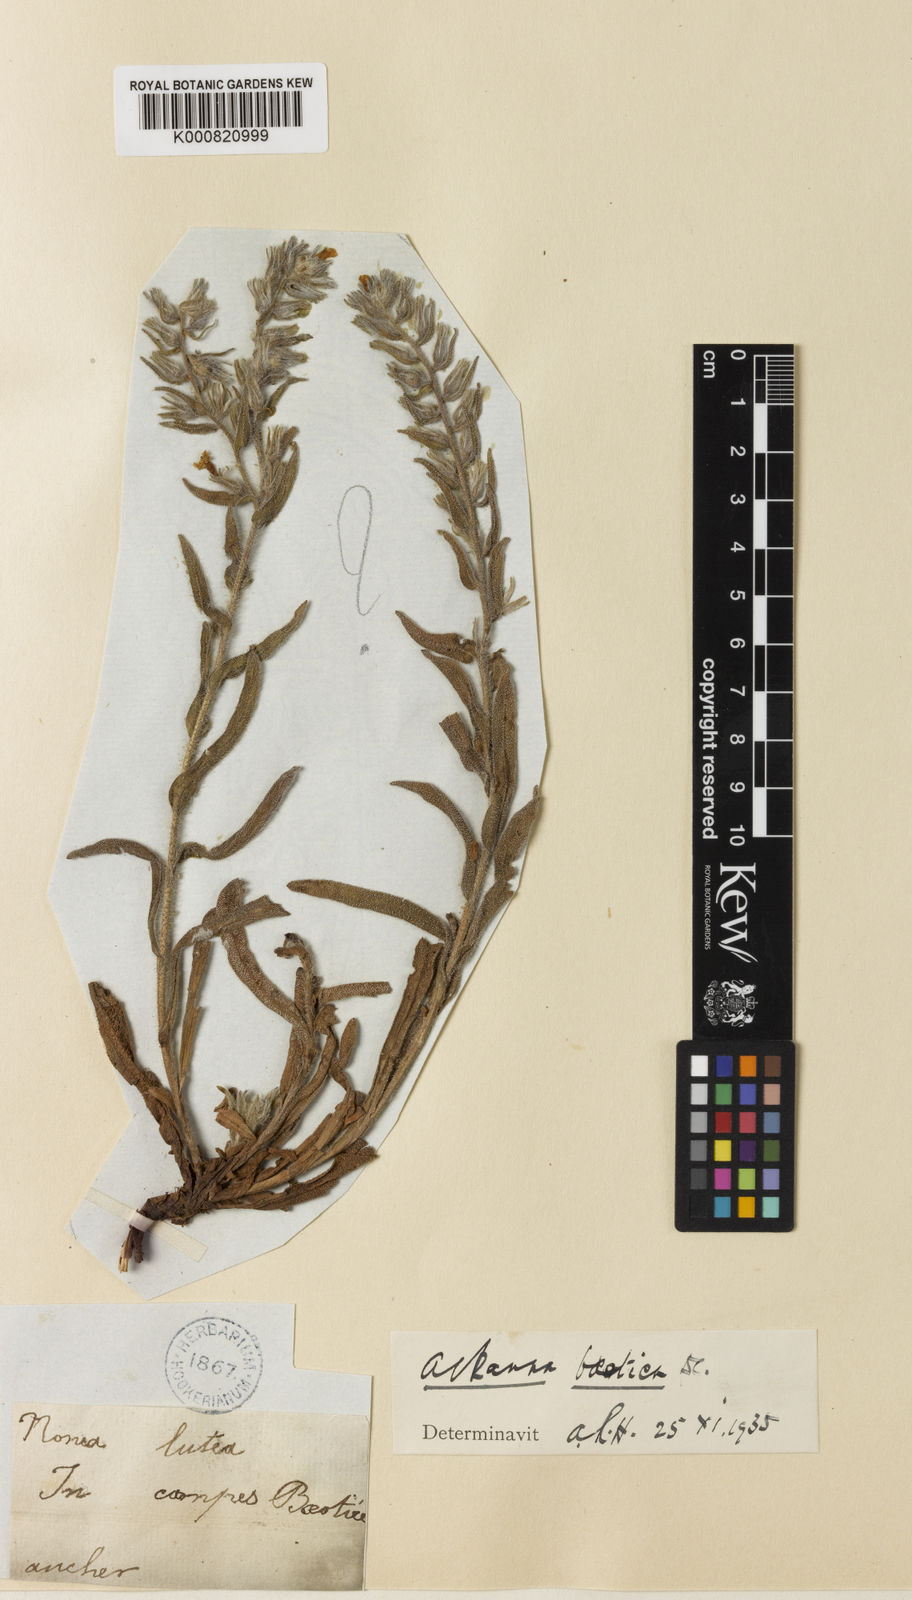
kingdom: Plantae
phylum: Tracheophyta
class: Magnoliopsida
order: Boraginales
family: Boraginaceae
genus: Alkanna
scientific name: Alkanna graeca
